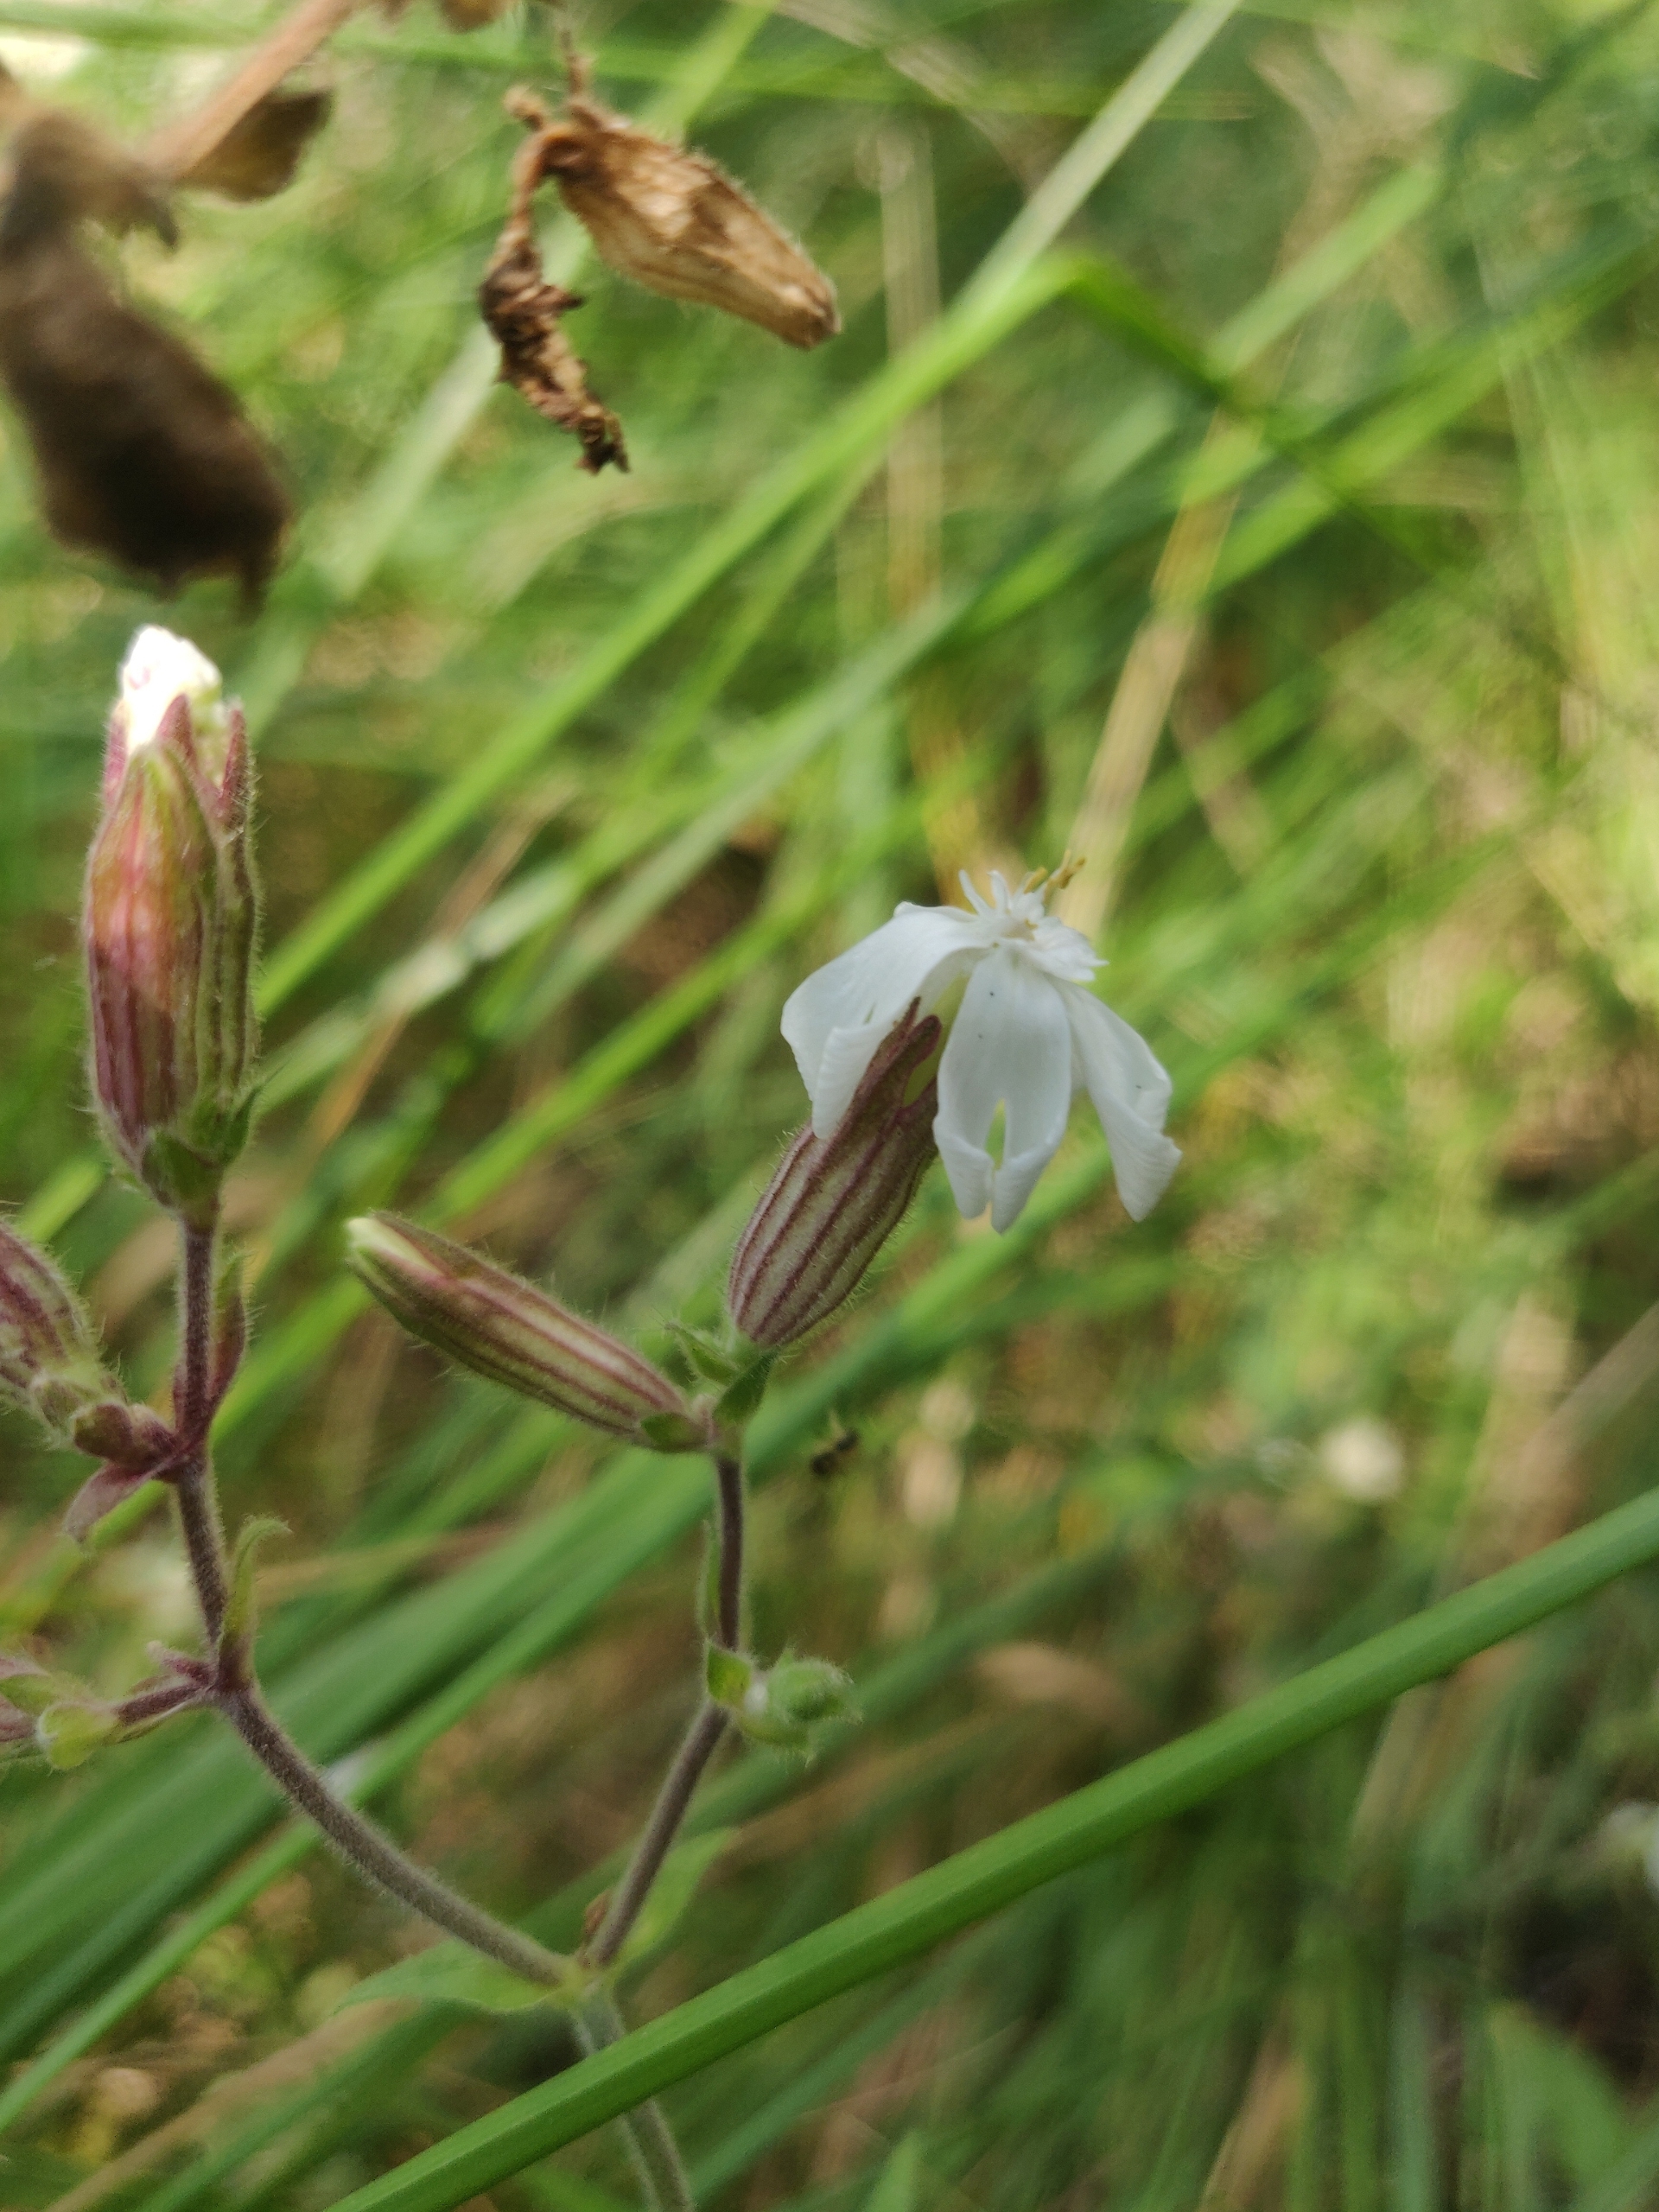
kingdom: Plantae
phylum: Tracheophyta
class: Magnoliopsida
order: Caryophyllales
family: Caryophyllaceae
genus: Silene
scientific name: Silene latifolia
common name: Aftenpragtstjerne
